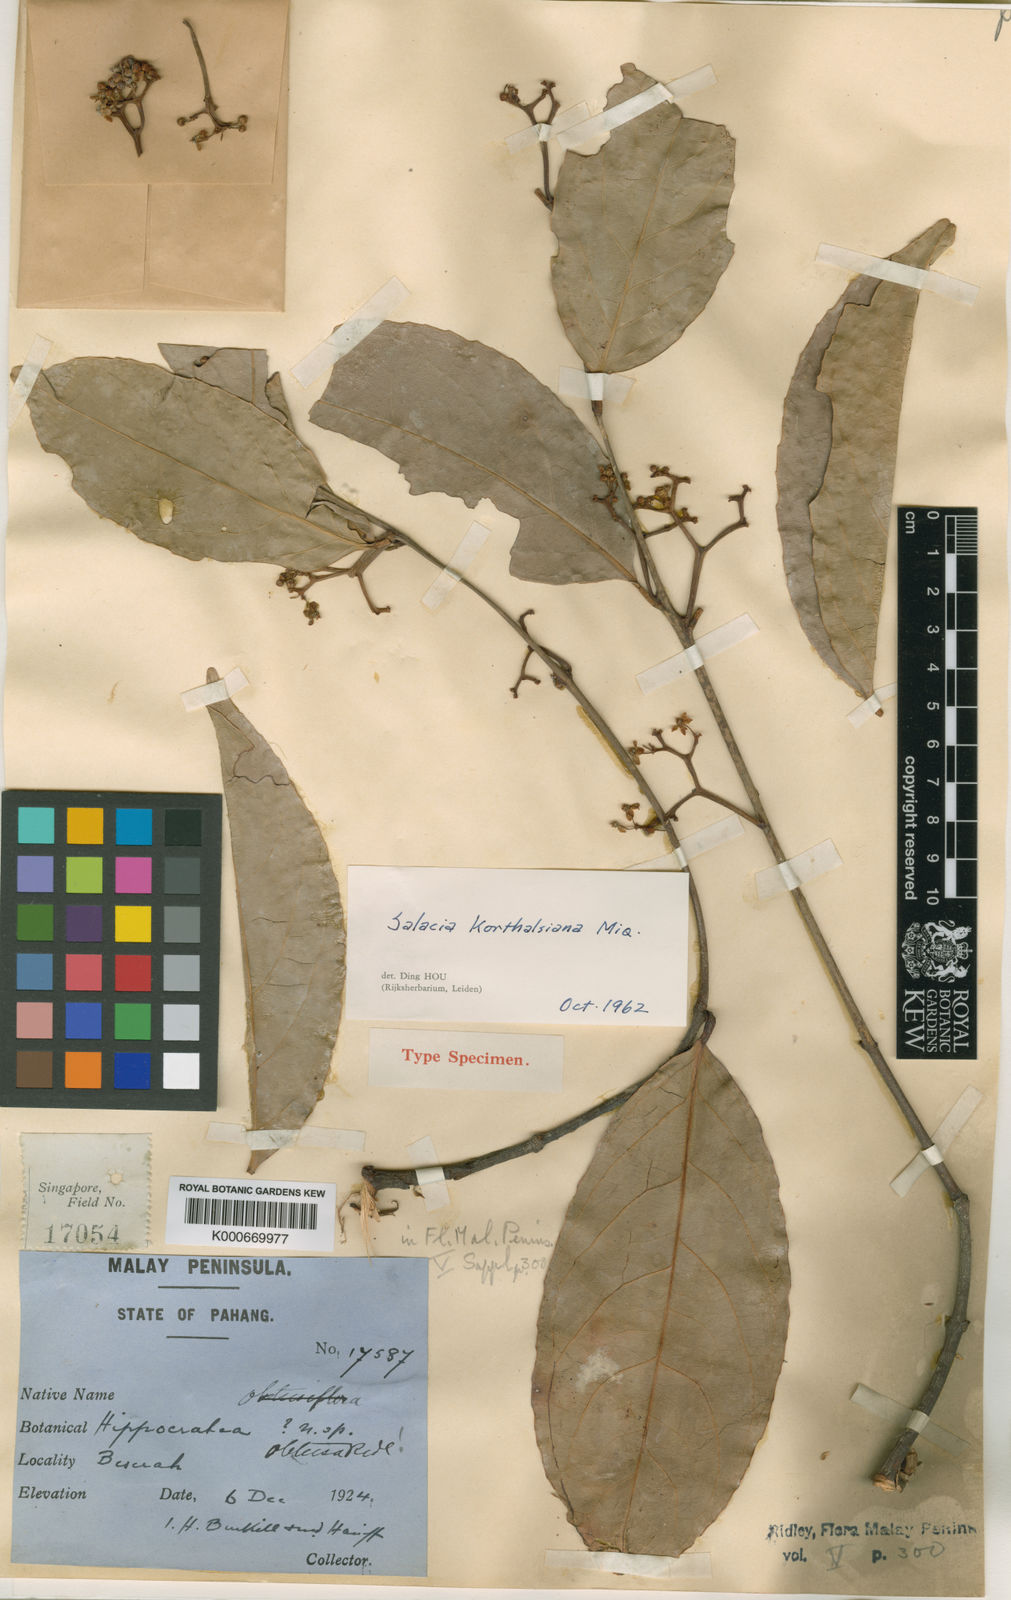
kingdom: Plantae
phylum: Tracheophyta
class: Magnoliopsida
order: Celastrales
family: Celastraceae
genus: Salacia
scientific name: Salacia korthalsiana
